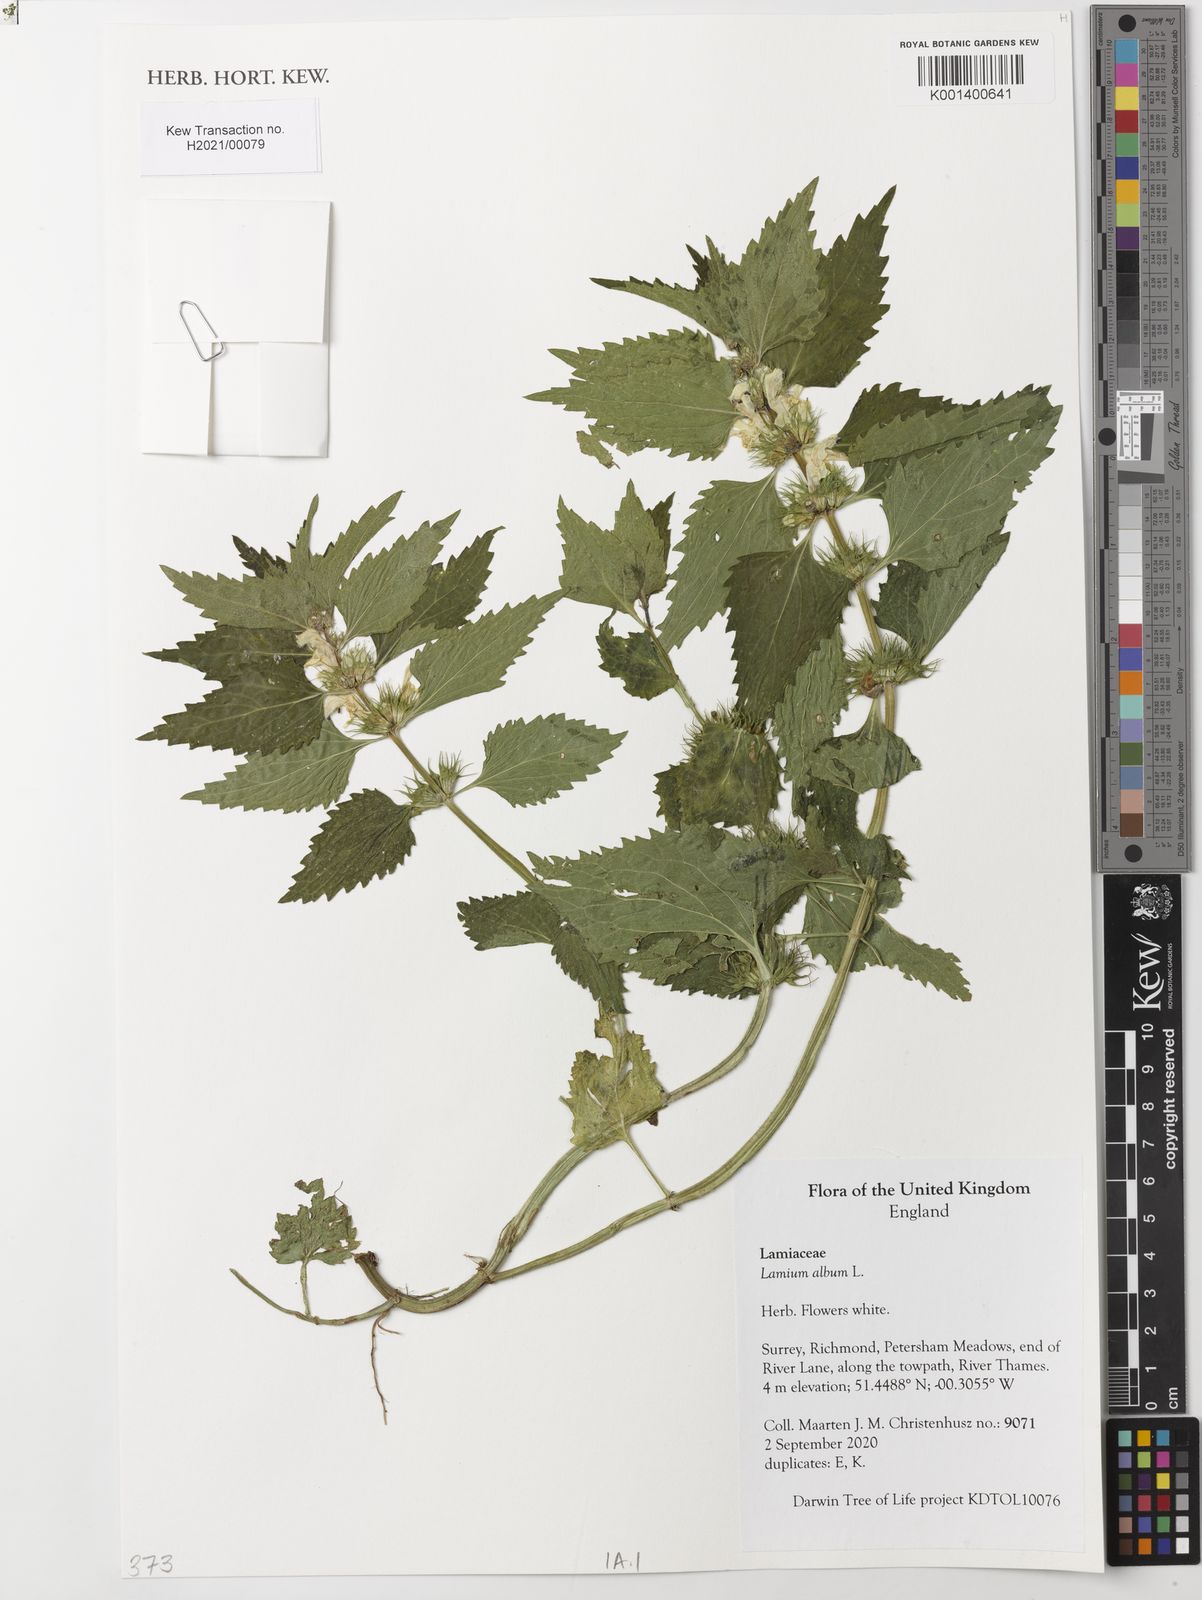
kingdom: Plantae
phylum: Tracheophyta
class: Magnoliopsida
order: Lamiales
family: Lamiaceae
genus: Lamium
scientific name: Lamium album
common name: White dead-nettle
